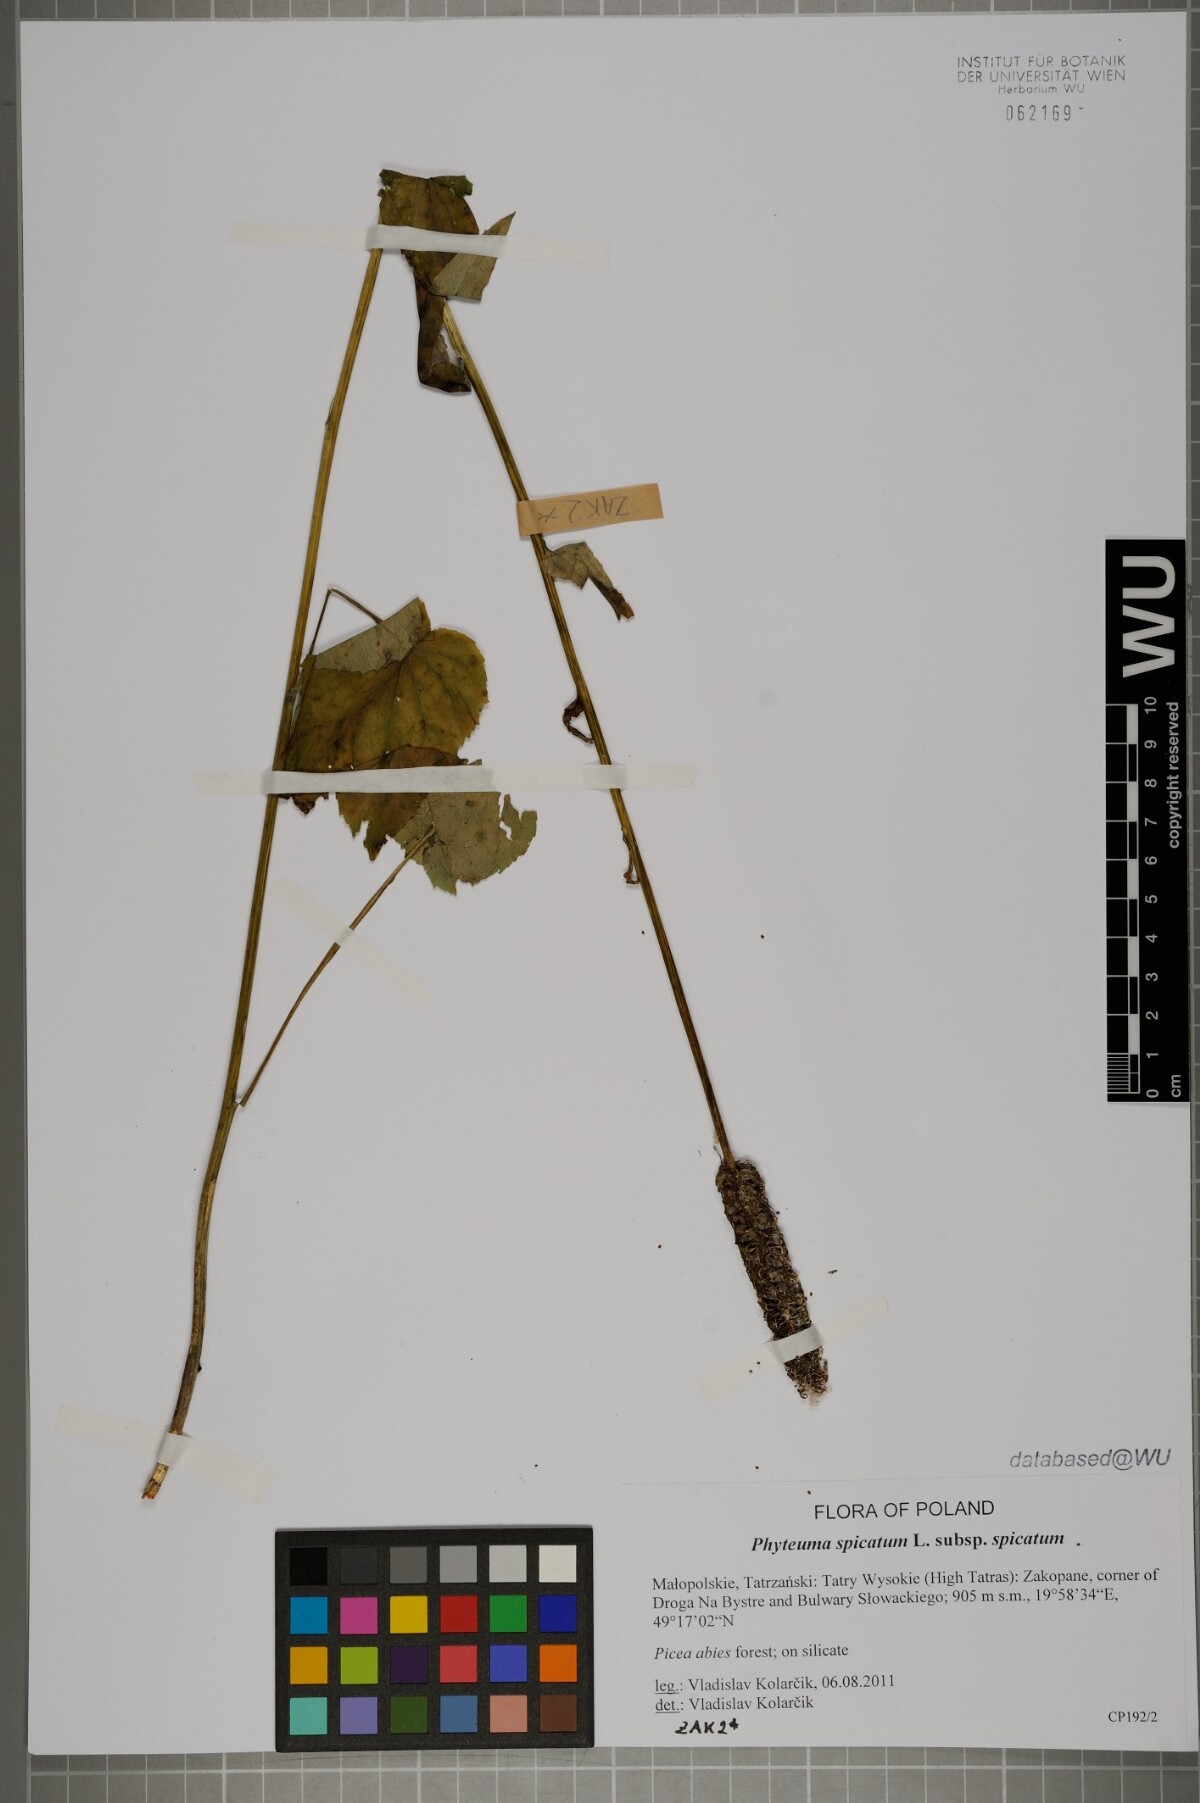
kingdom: Plantae
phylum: Tracheophyta
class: Magnoliopsida
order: Asterales
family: Campanulaceae
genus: Phyteuma
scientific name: Phyteuma spicatum
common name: Spiked rampion
